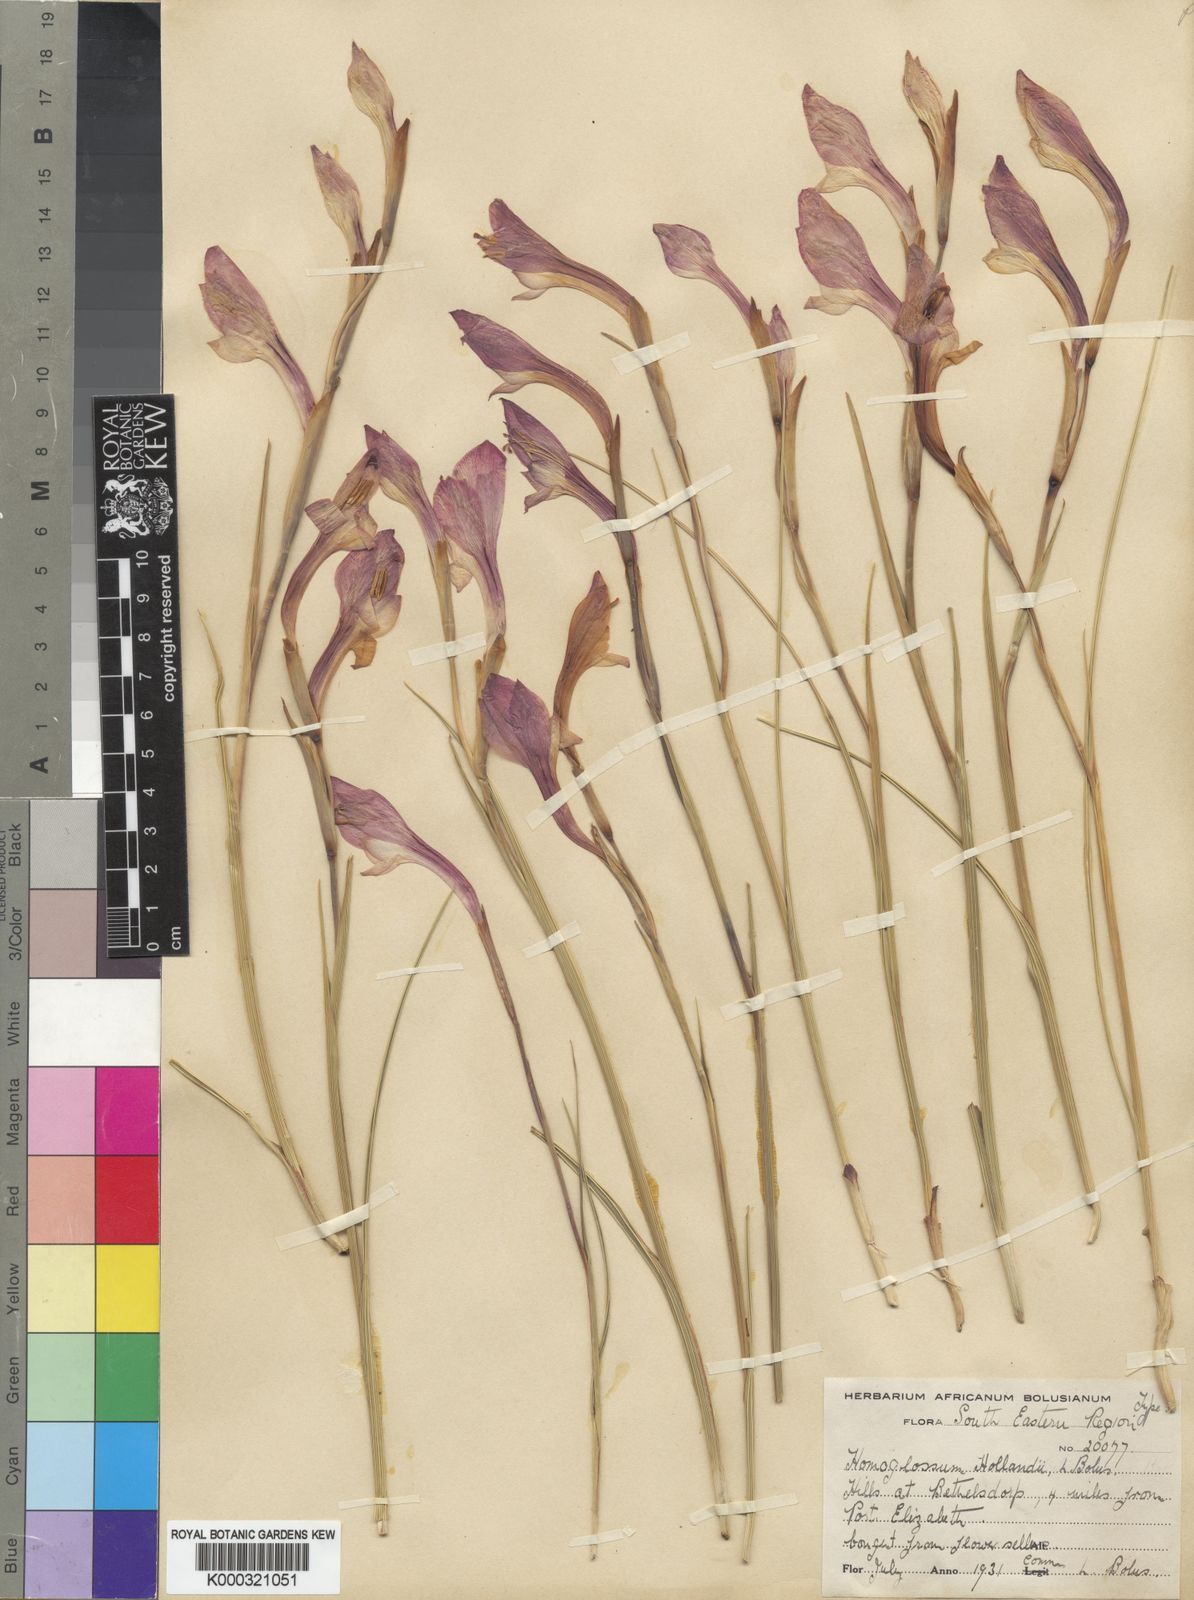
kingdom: Plantae
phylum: Tracheophyta
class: Liliopsida
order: Asparagales
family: Iridaceae
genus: Gladiolus
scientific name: Gladiolus huttonii
